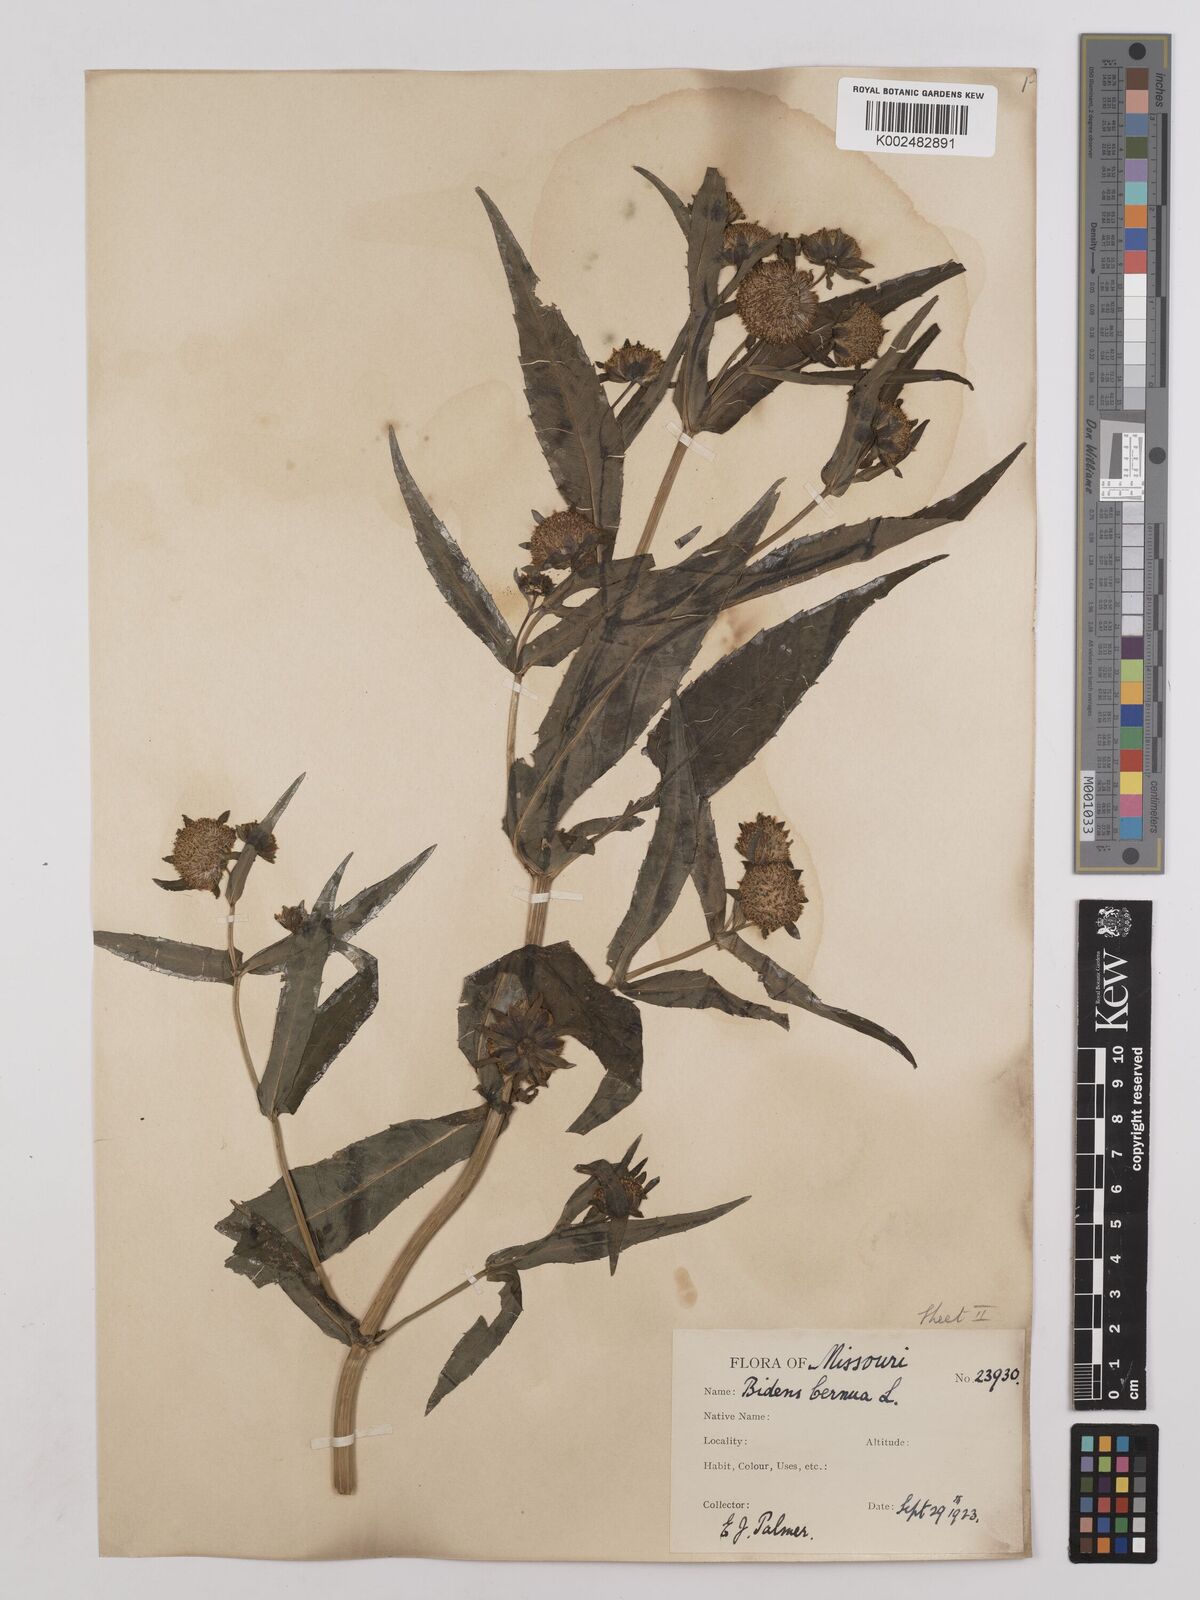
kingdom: Plantae
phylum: Tracheophyta
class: Magnoliopsida
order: Asterales
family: Asteraceae
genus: Bidens
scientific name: Bidens
